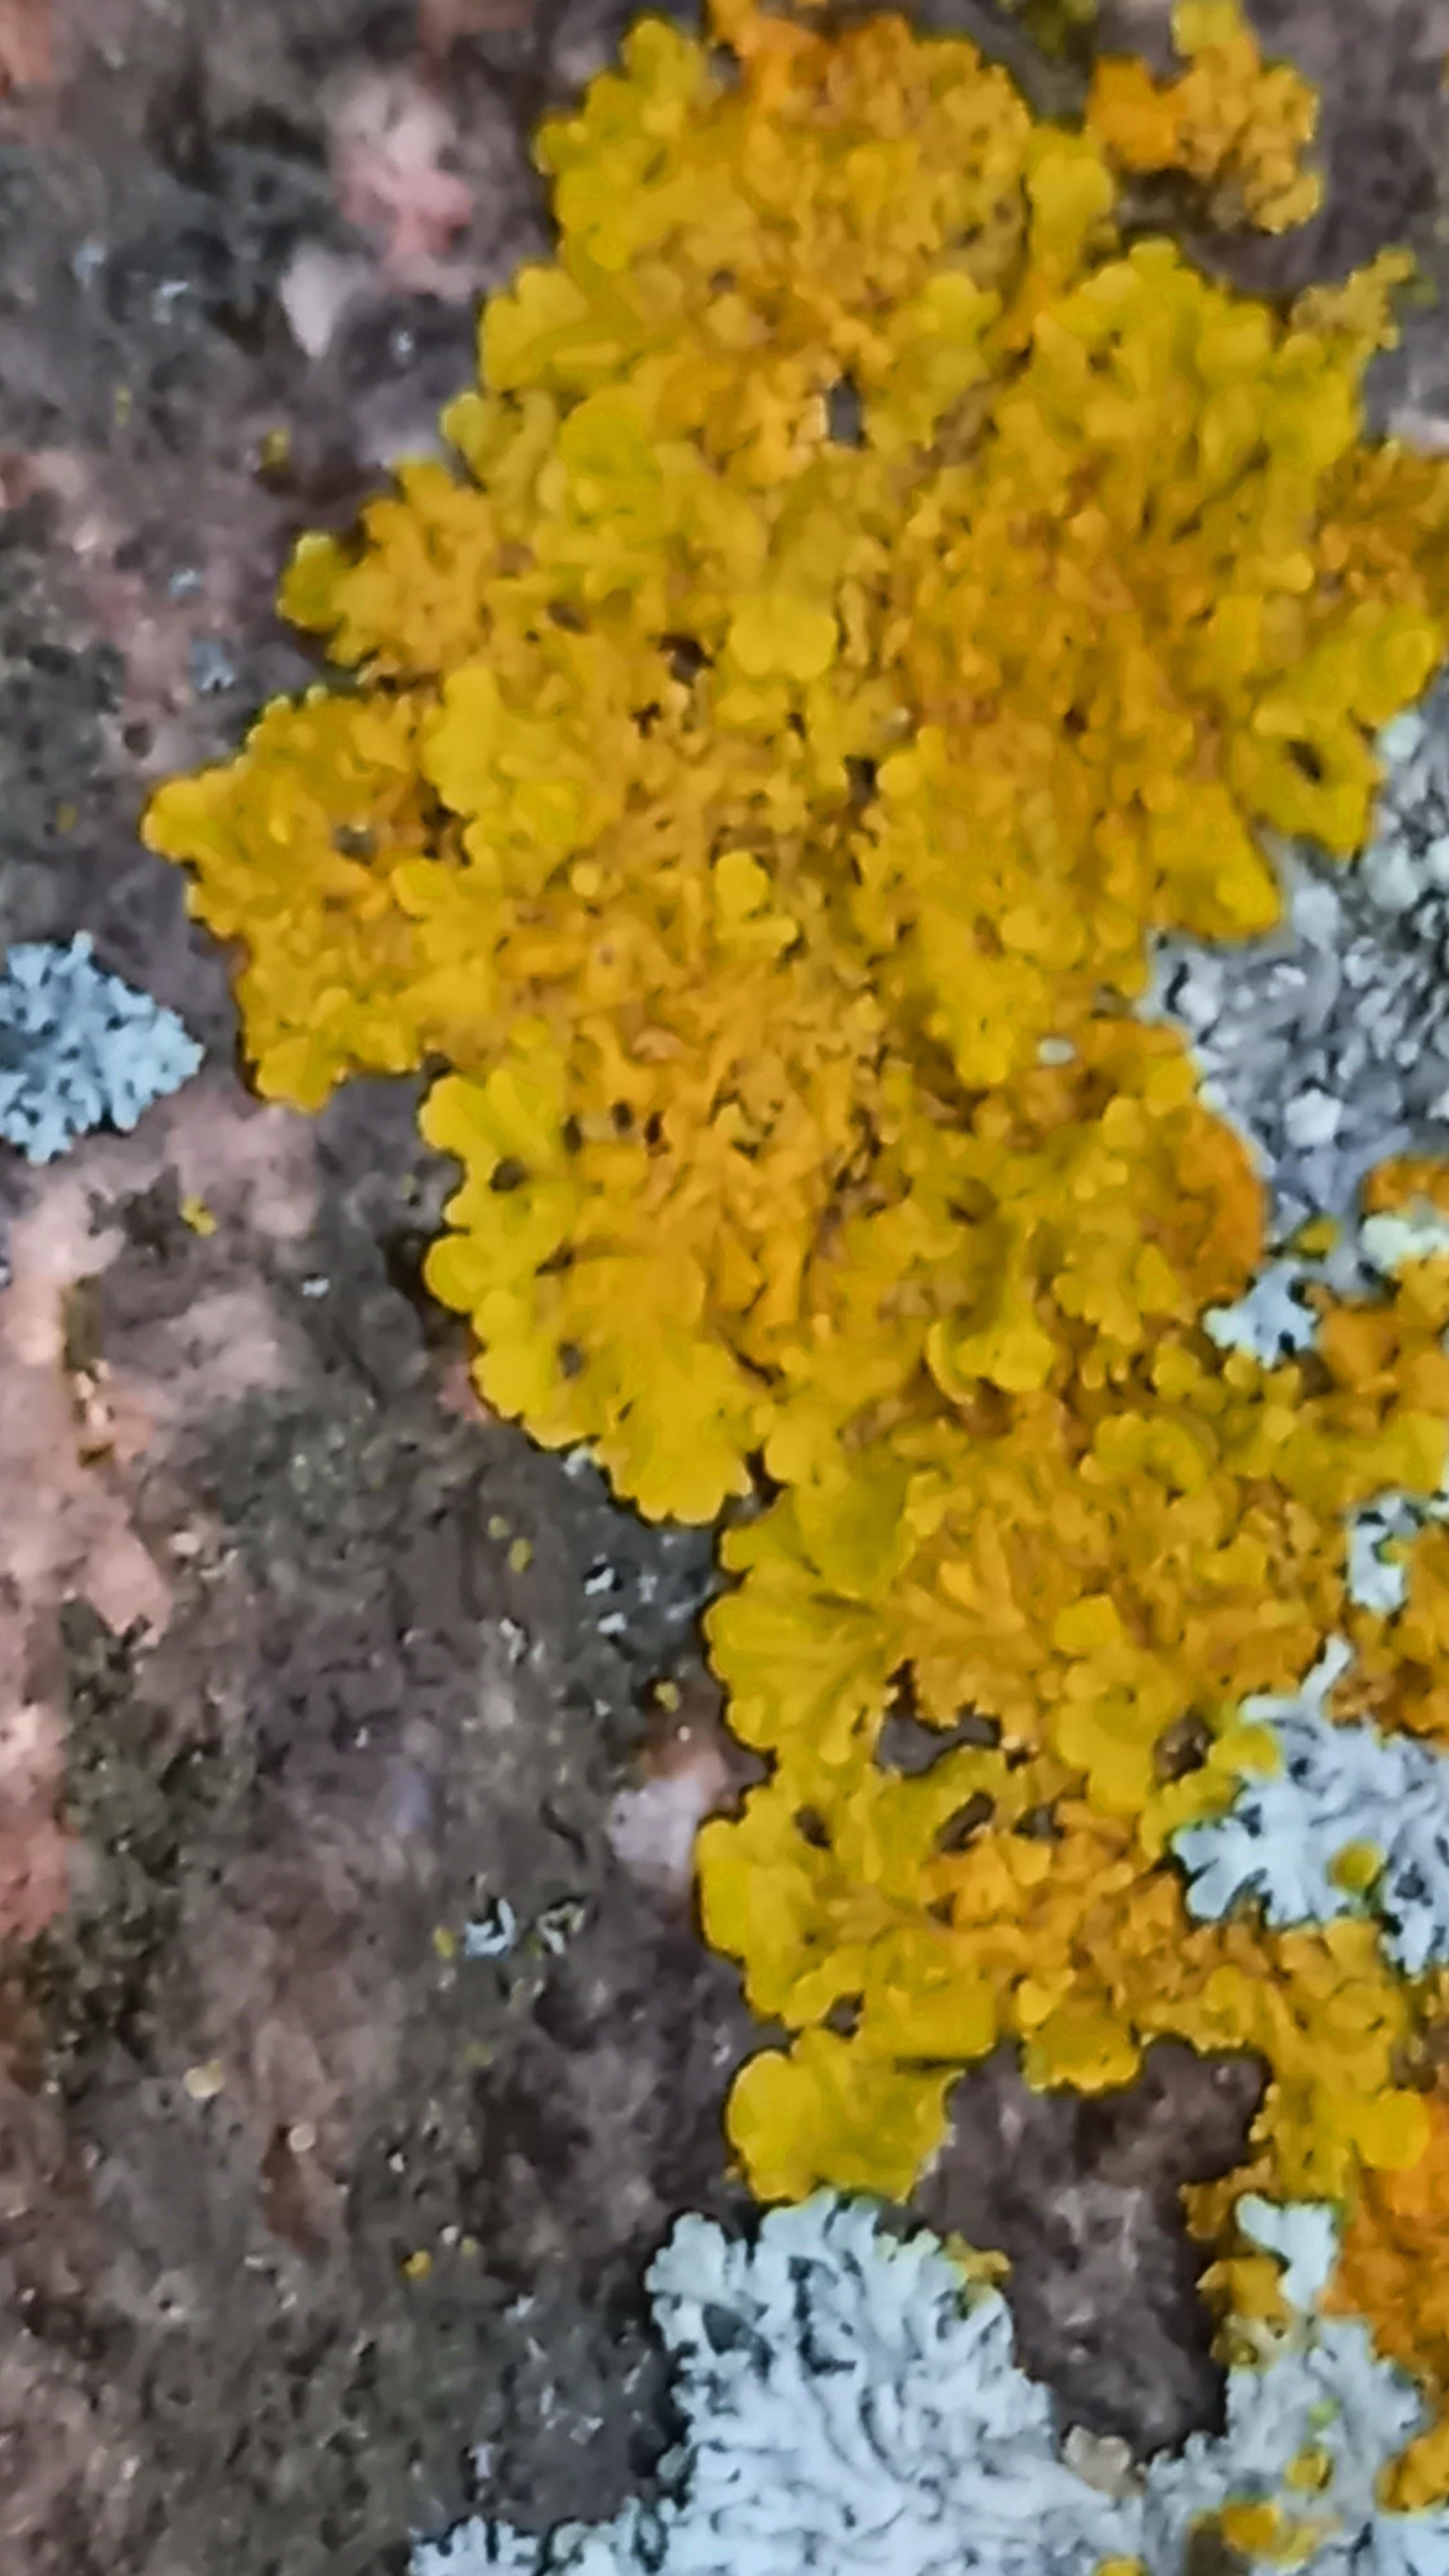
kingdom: Fungi
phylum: Ascomycota
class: Lecanoromycetes
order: Teloschistales
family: Teloschistaceae
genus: Xanthoria
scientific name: Xanthoria parietina
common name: almindelig væggelav
